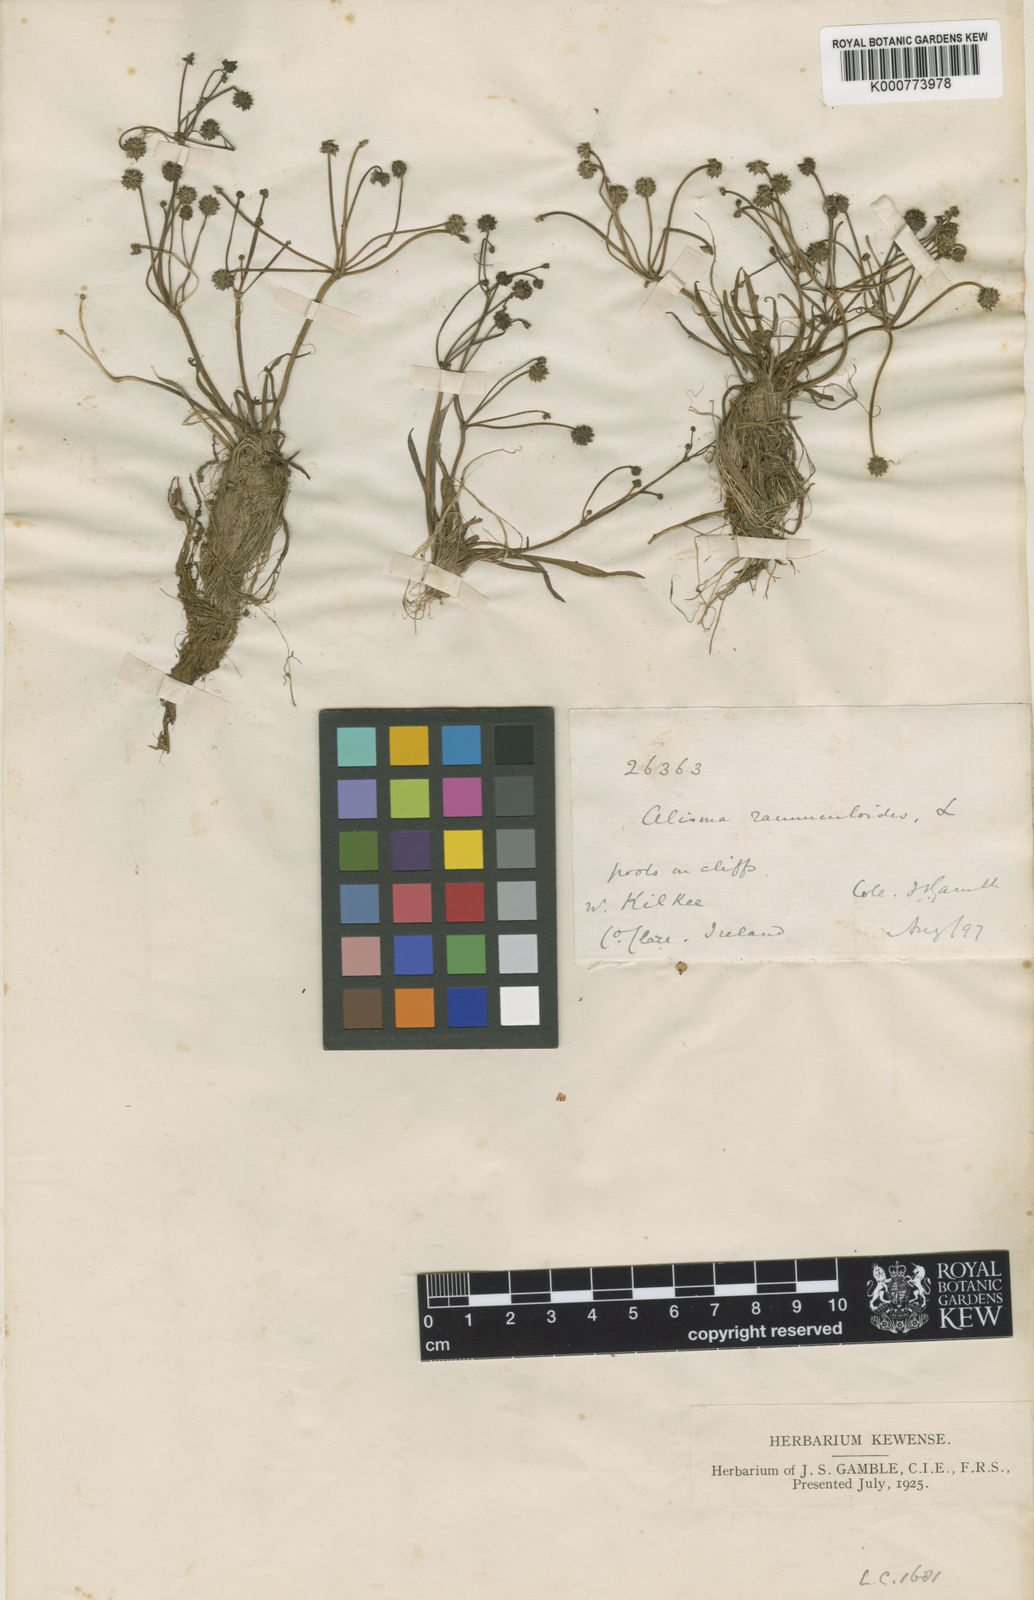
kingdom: Plantae
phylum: Tracheophyta
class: Liliopsida
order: Alismatales
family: Alismataceae
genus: Baldellia
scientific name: Baldellia ranunculoides
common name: Lesser water-plantain
